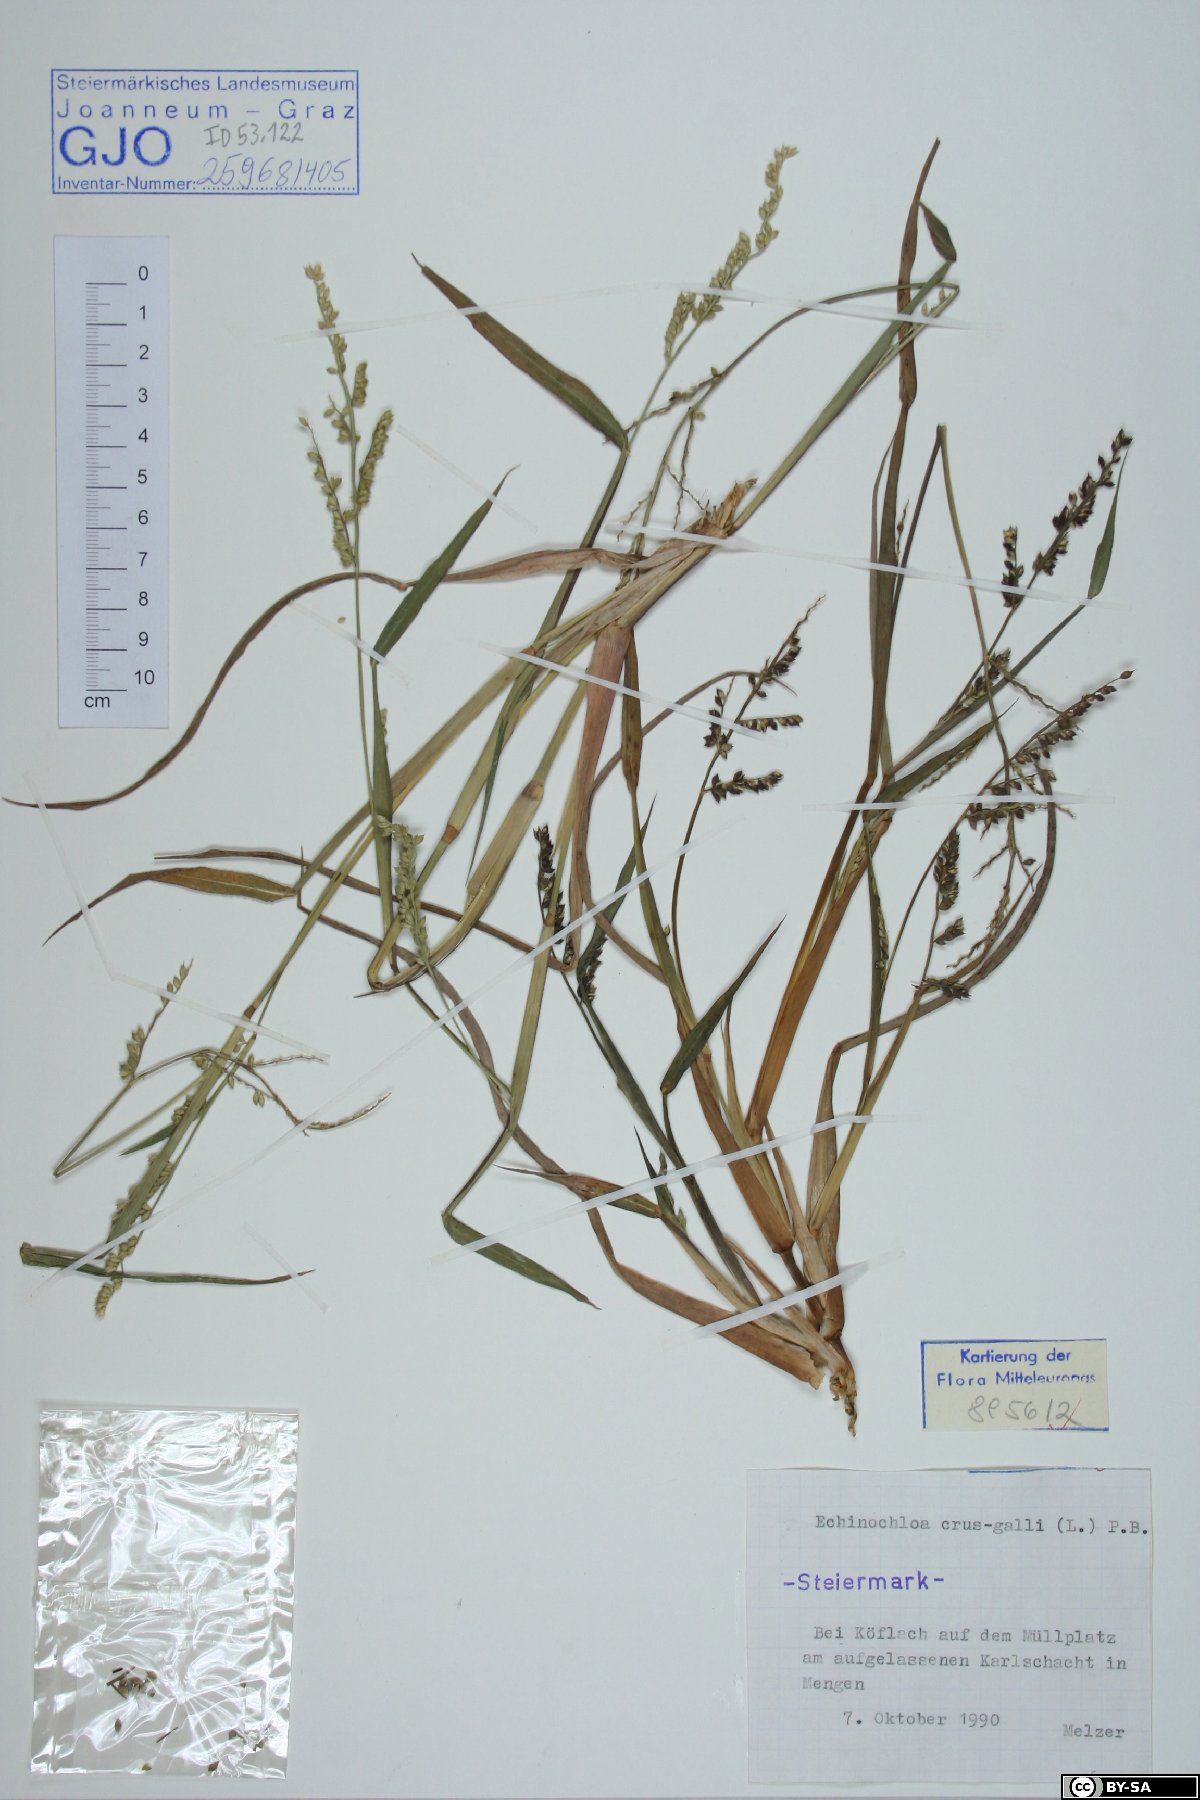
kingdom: Plantae
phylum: Tracheophyta
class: Liliopsida
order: Poales
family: Poaceae
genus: Echinochloa
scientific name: Echinochloa crus-galli
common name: Cockspur
